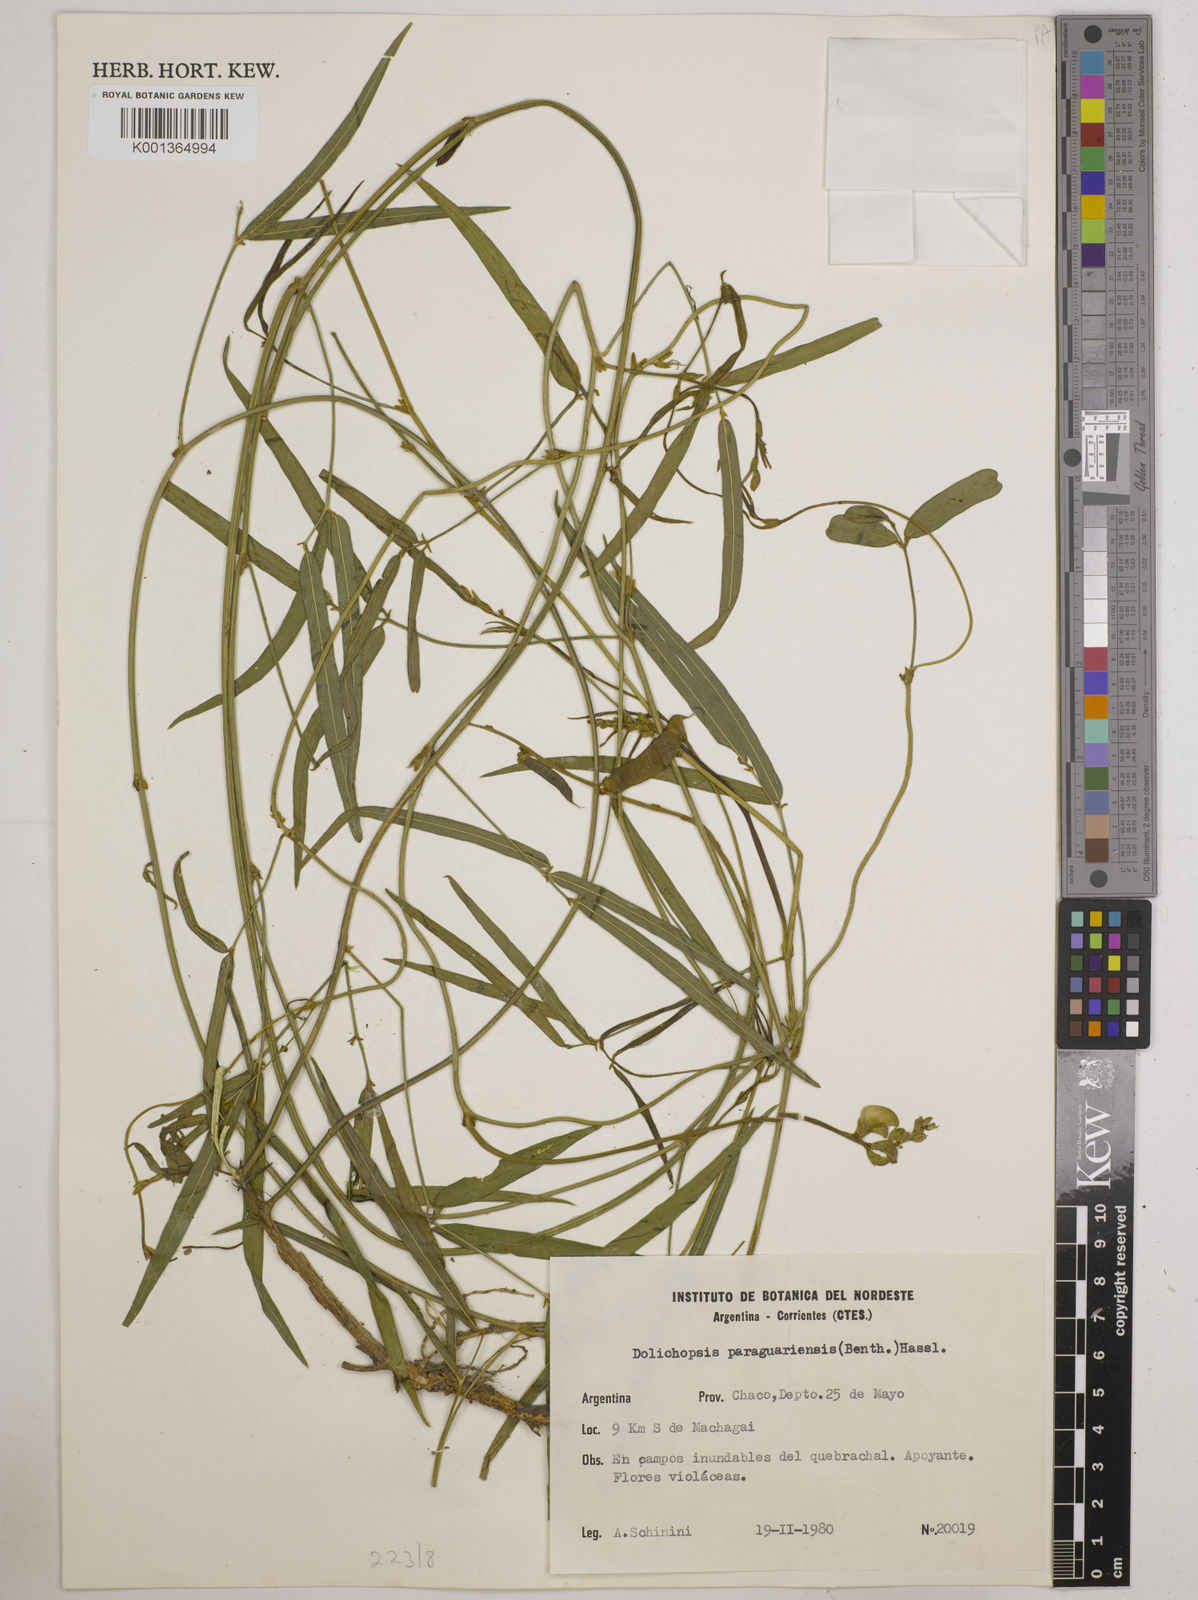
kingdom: Plantae
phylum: Tracheophyta
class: Magnoliopsida
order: Fabales
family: Fabaceae
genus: Dolichopsis
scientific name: Dolichopsis paraguariensis
